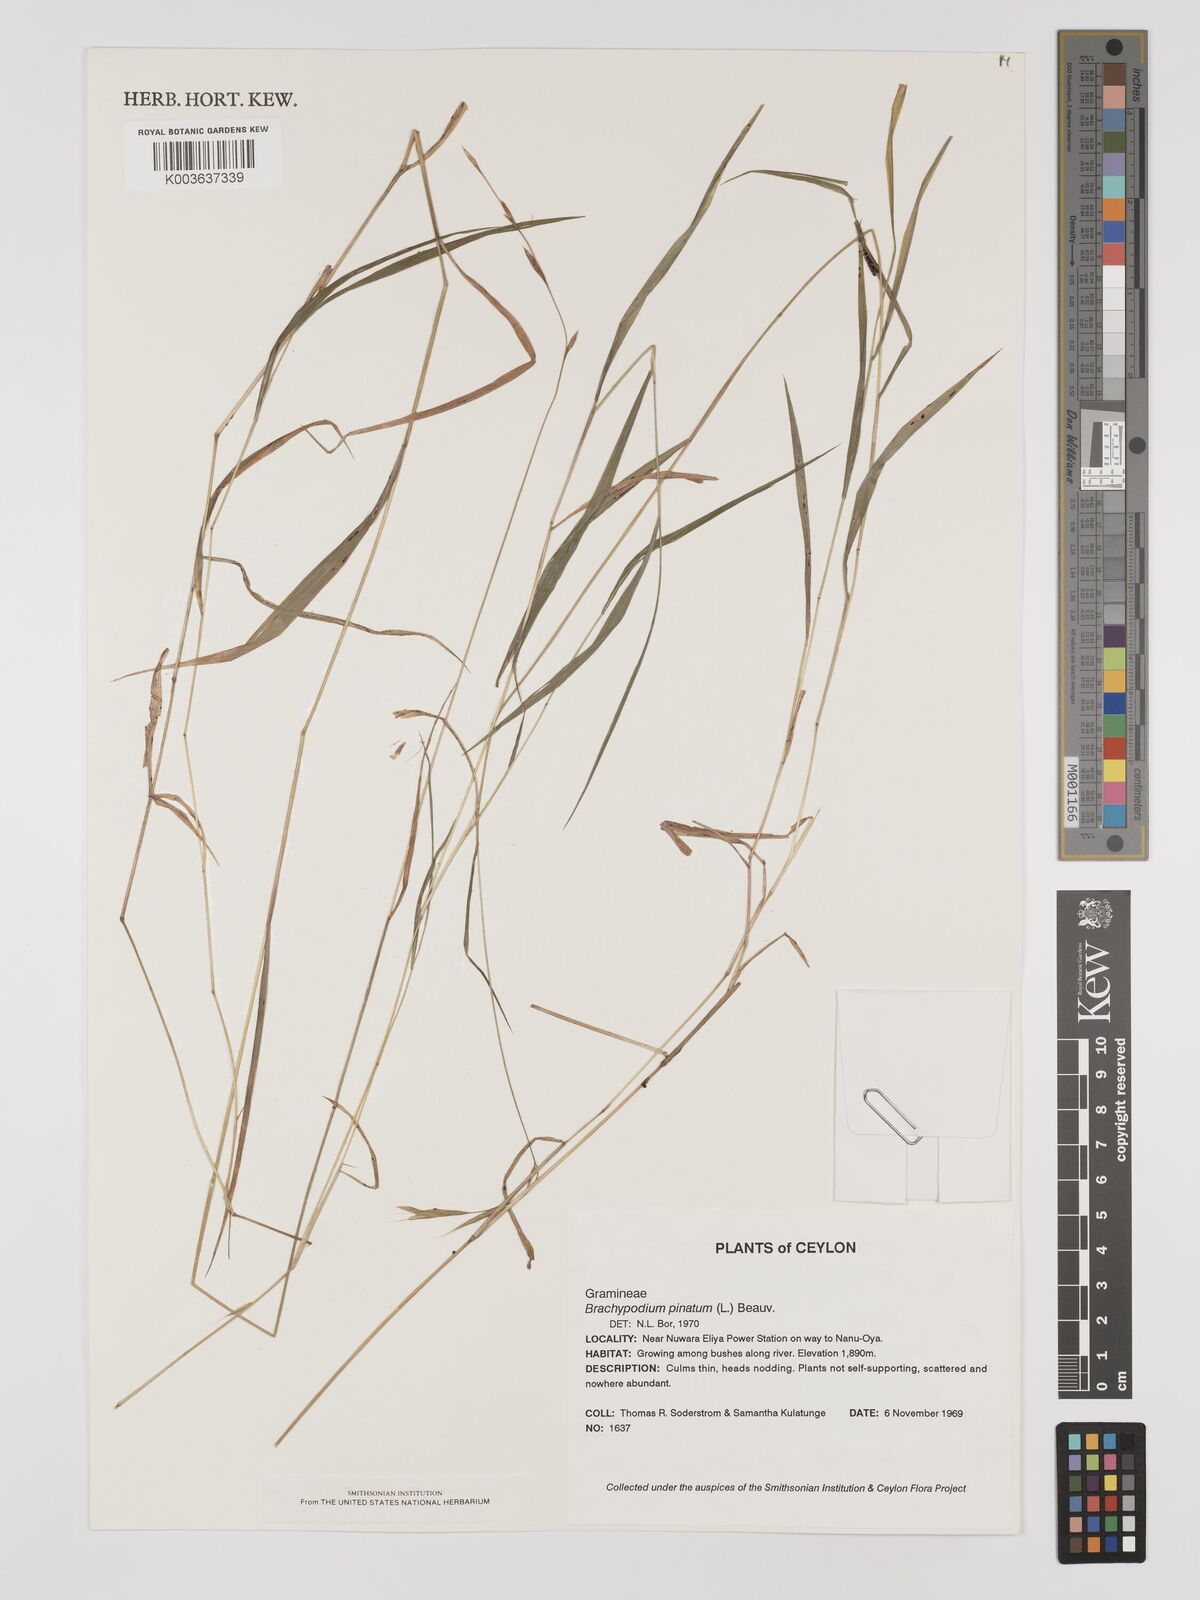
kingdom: Plantae
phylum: Tracheophyta
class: Liliopsida
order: Poales
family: Poaceae
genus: Brachypodium
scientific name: Brachypodium pinnatum
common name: Tor grass
